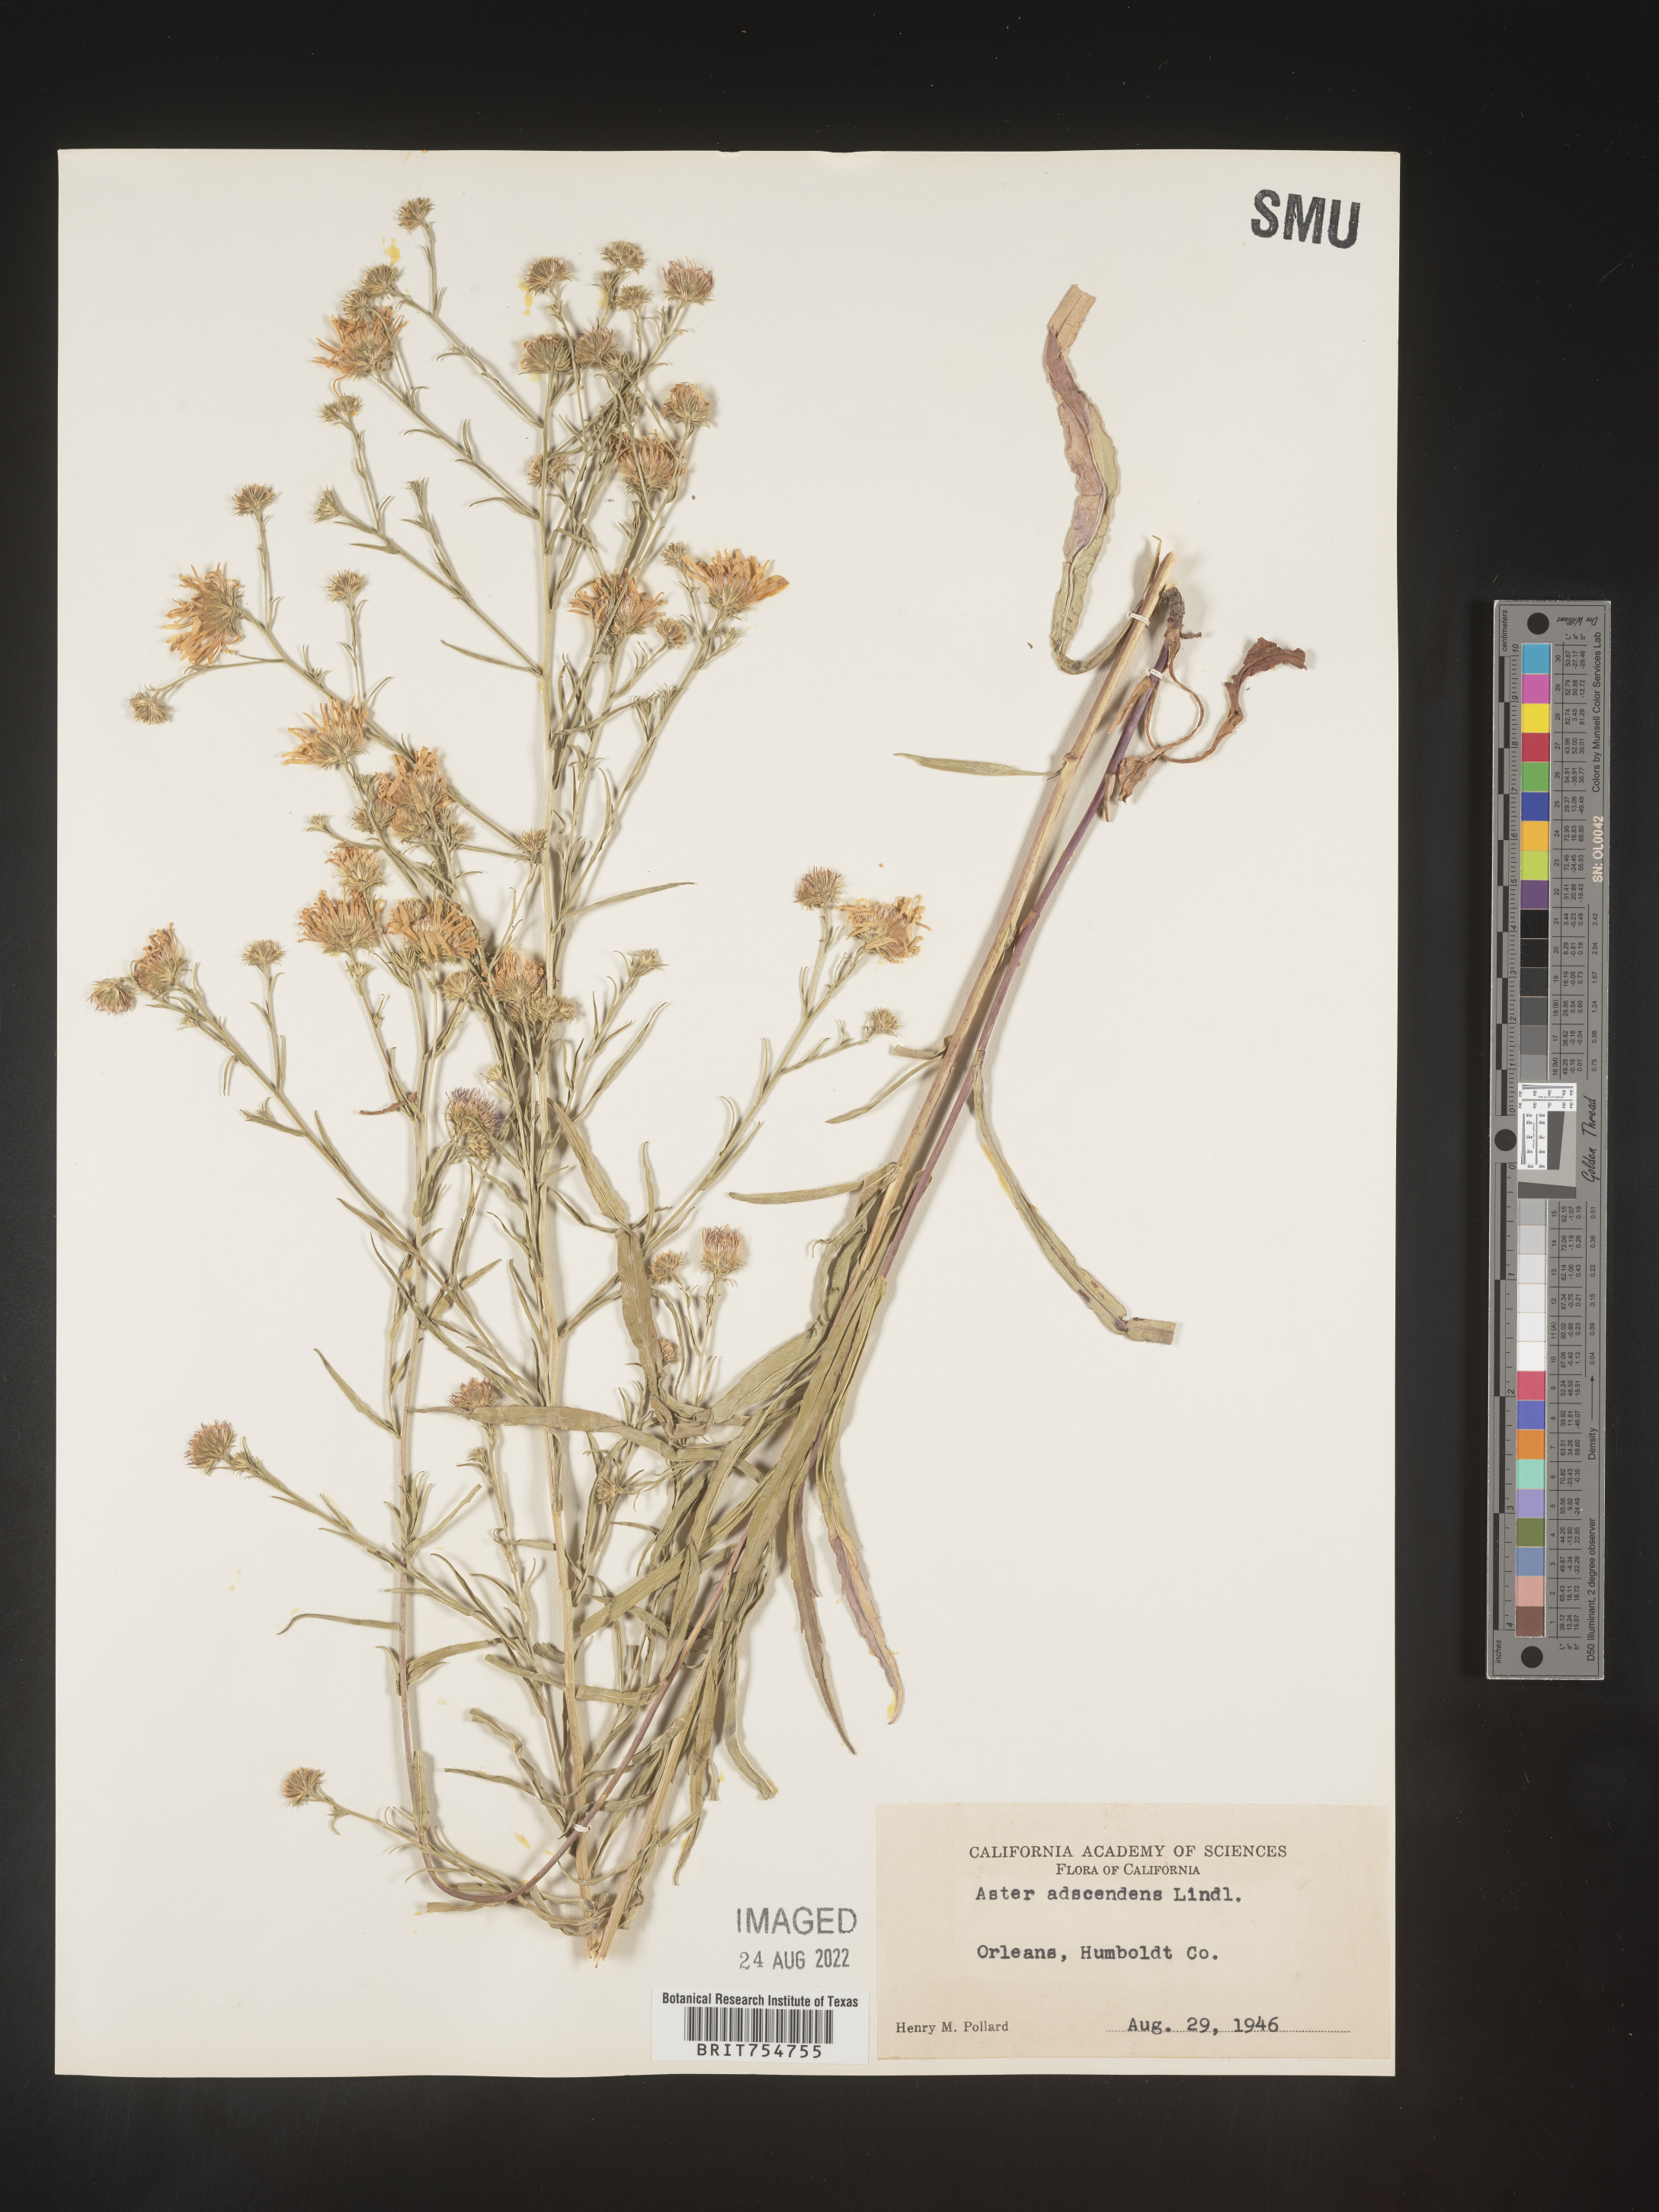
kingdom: Plantae
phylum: Tracheophyta
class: Magnoliopsida
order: Asterales
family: Asteraceae
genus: Symphyotrichum
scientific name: Symphyotrichum
